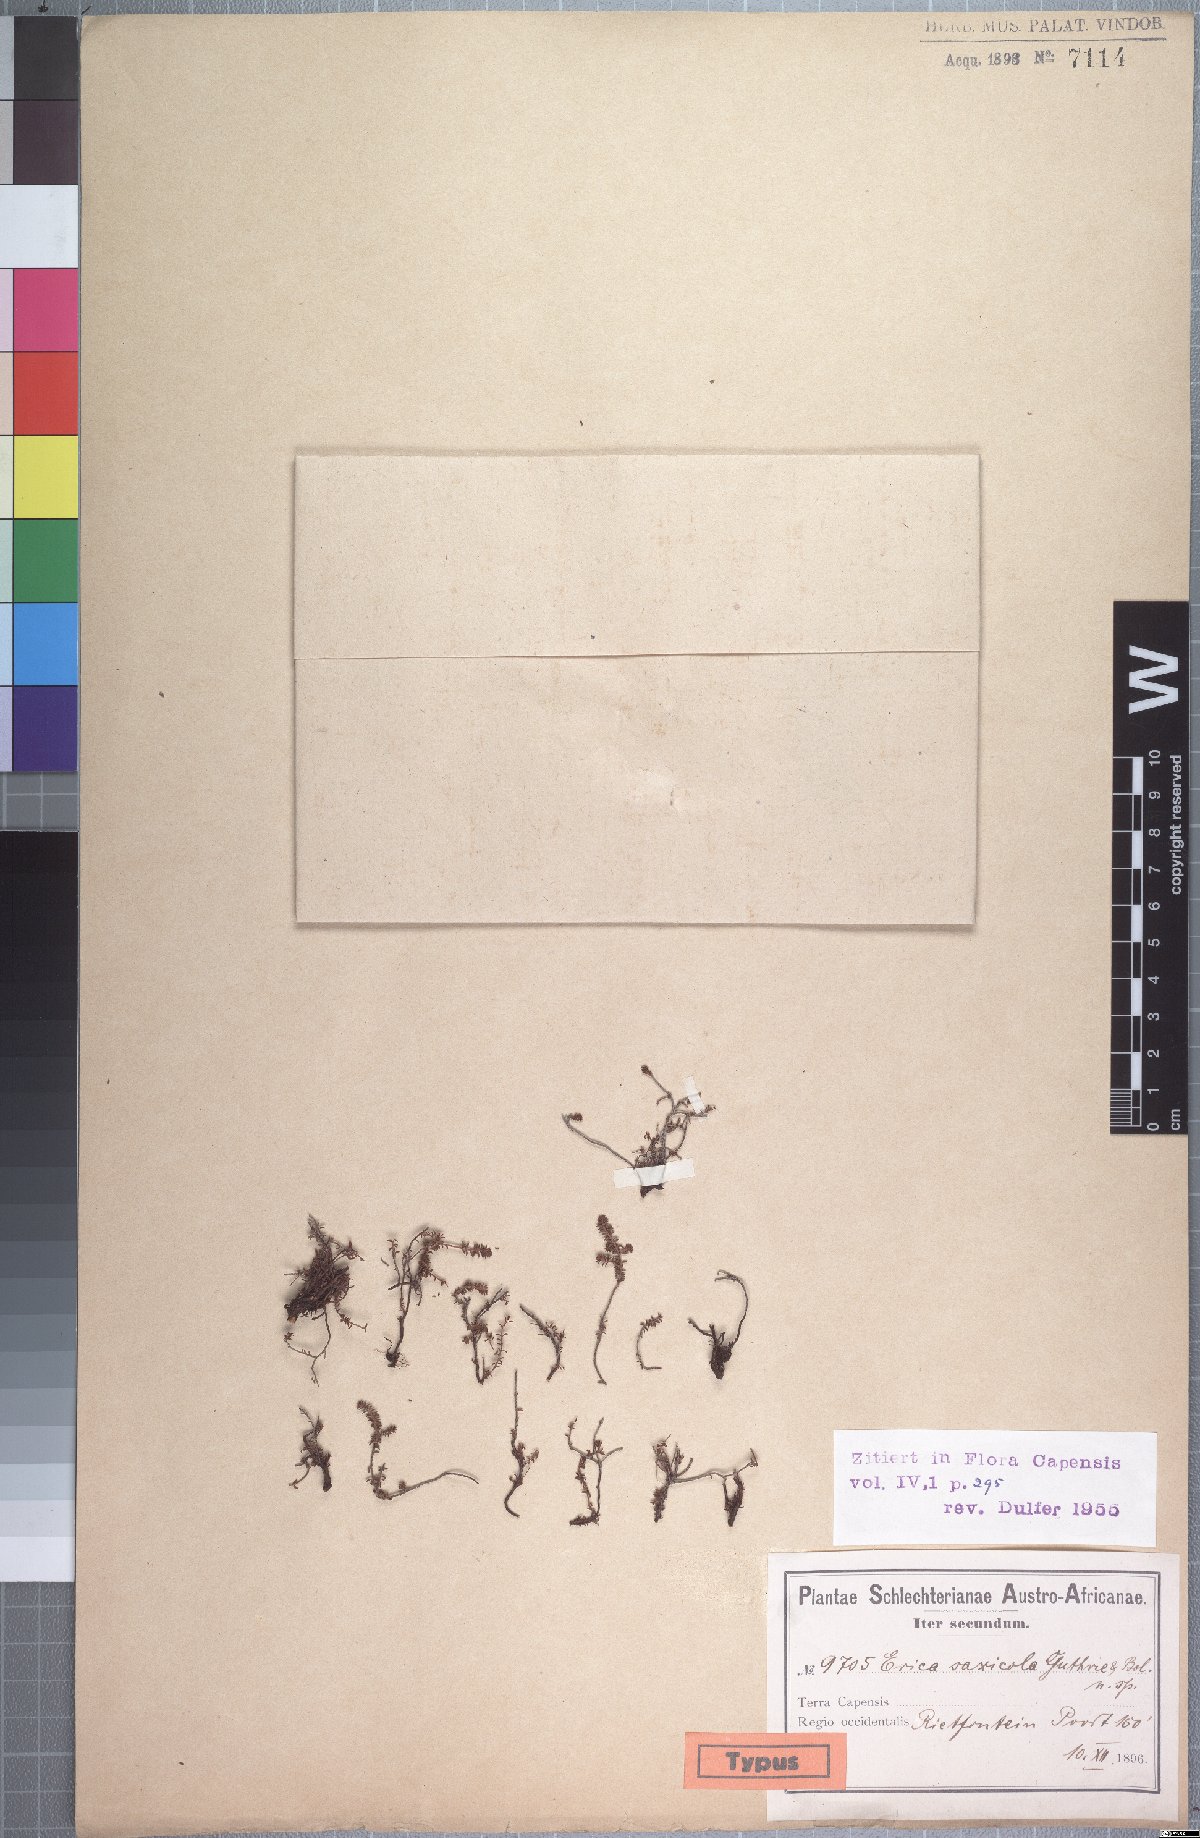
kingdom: Plantae
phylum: Tracheophyta
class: Magnoliopsida
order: Ericales
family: Ericaceae
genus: Erica
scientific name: Erica saxicola
